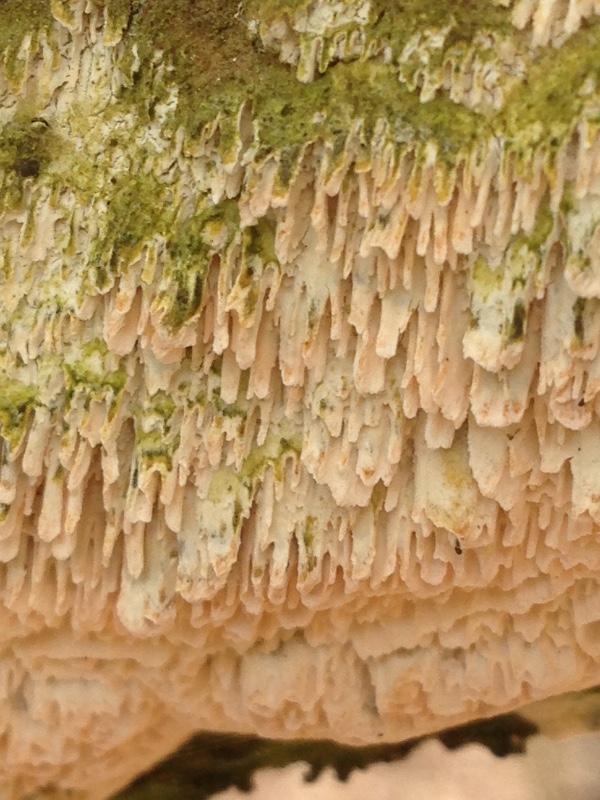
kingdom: Fungi
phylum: Basidiomycota
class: Agaricomycetes
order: Hymenochaetales
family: Schizoporaceae
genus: Schizopora
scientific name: Schizopora paradoxa
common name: hvid tandsvamp
